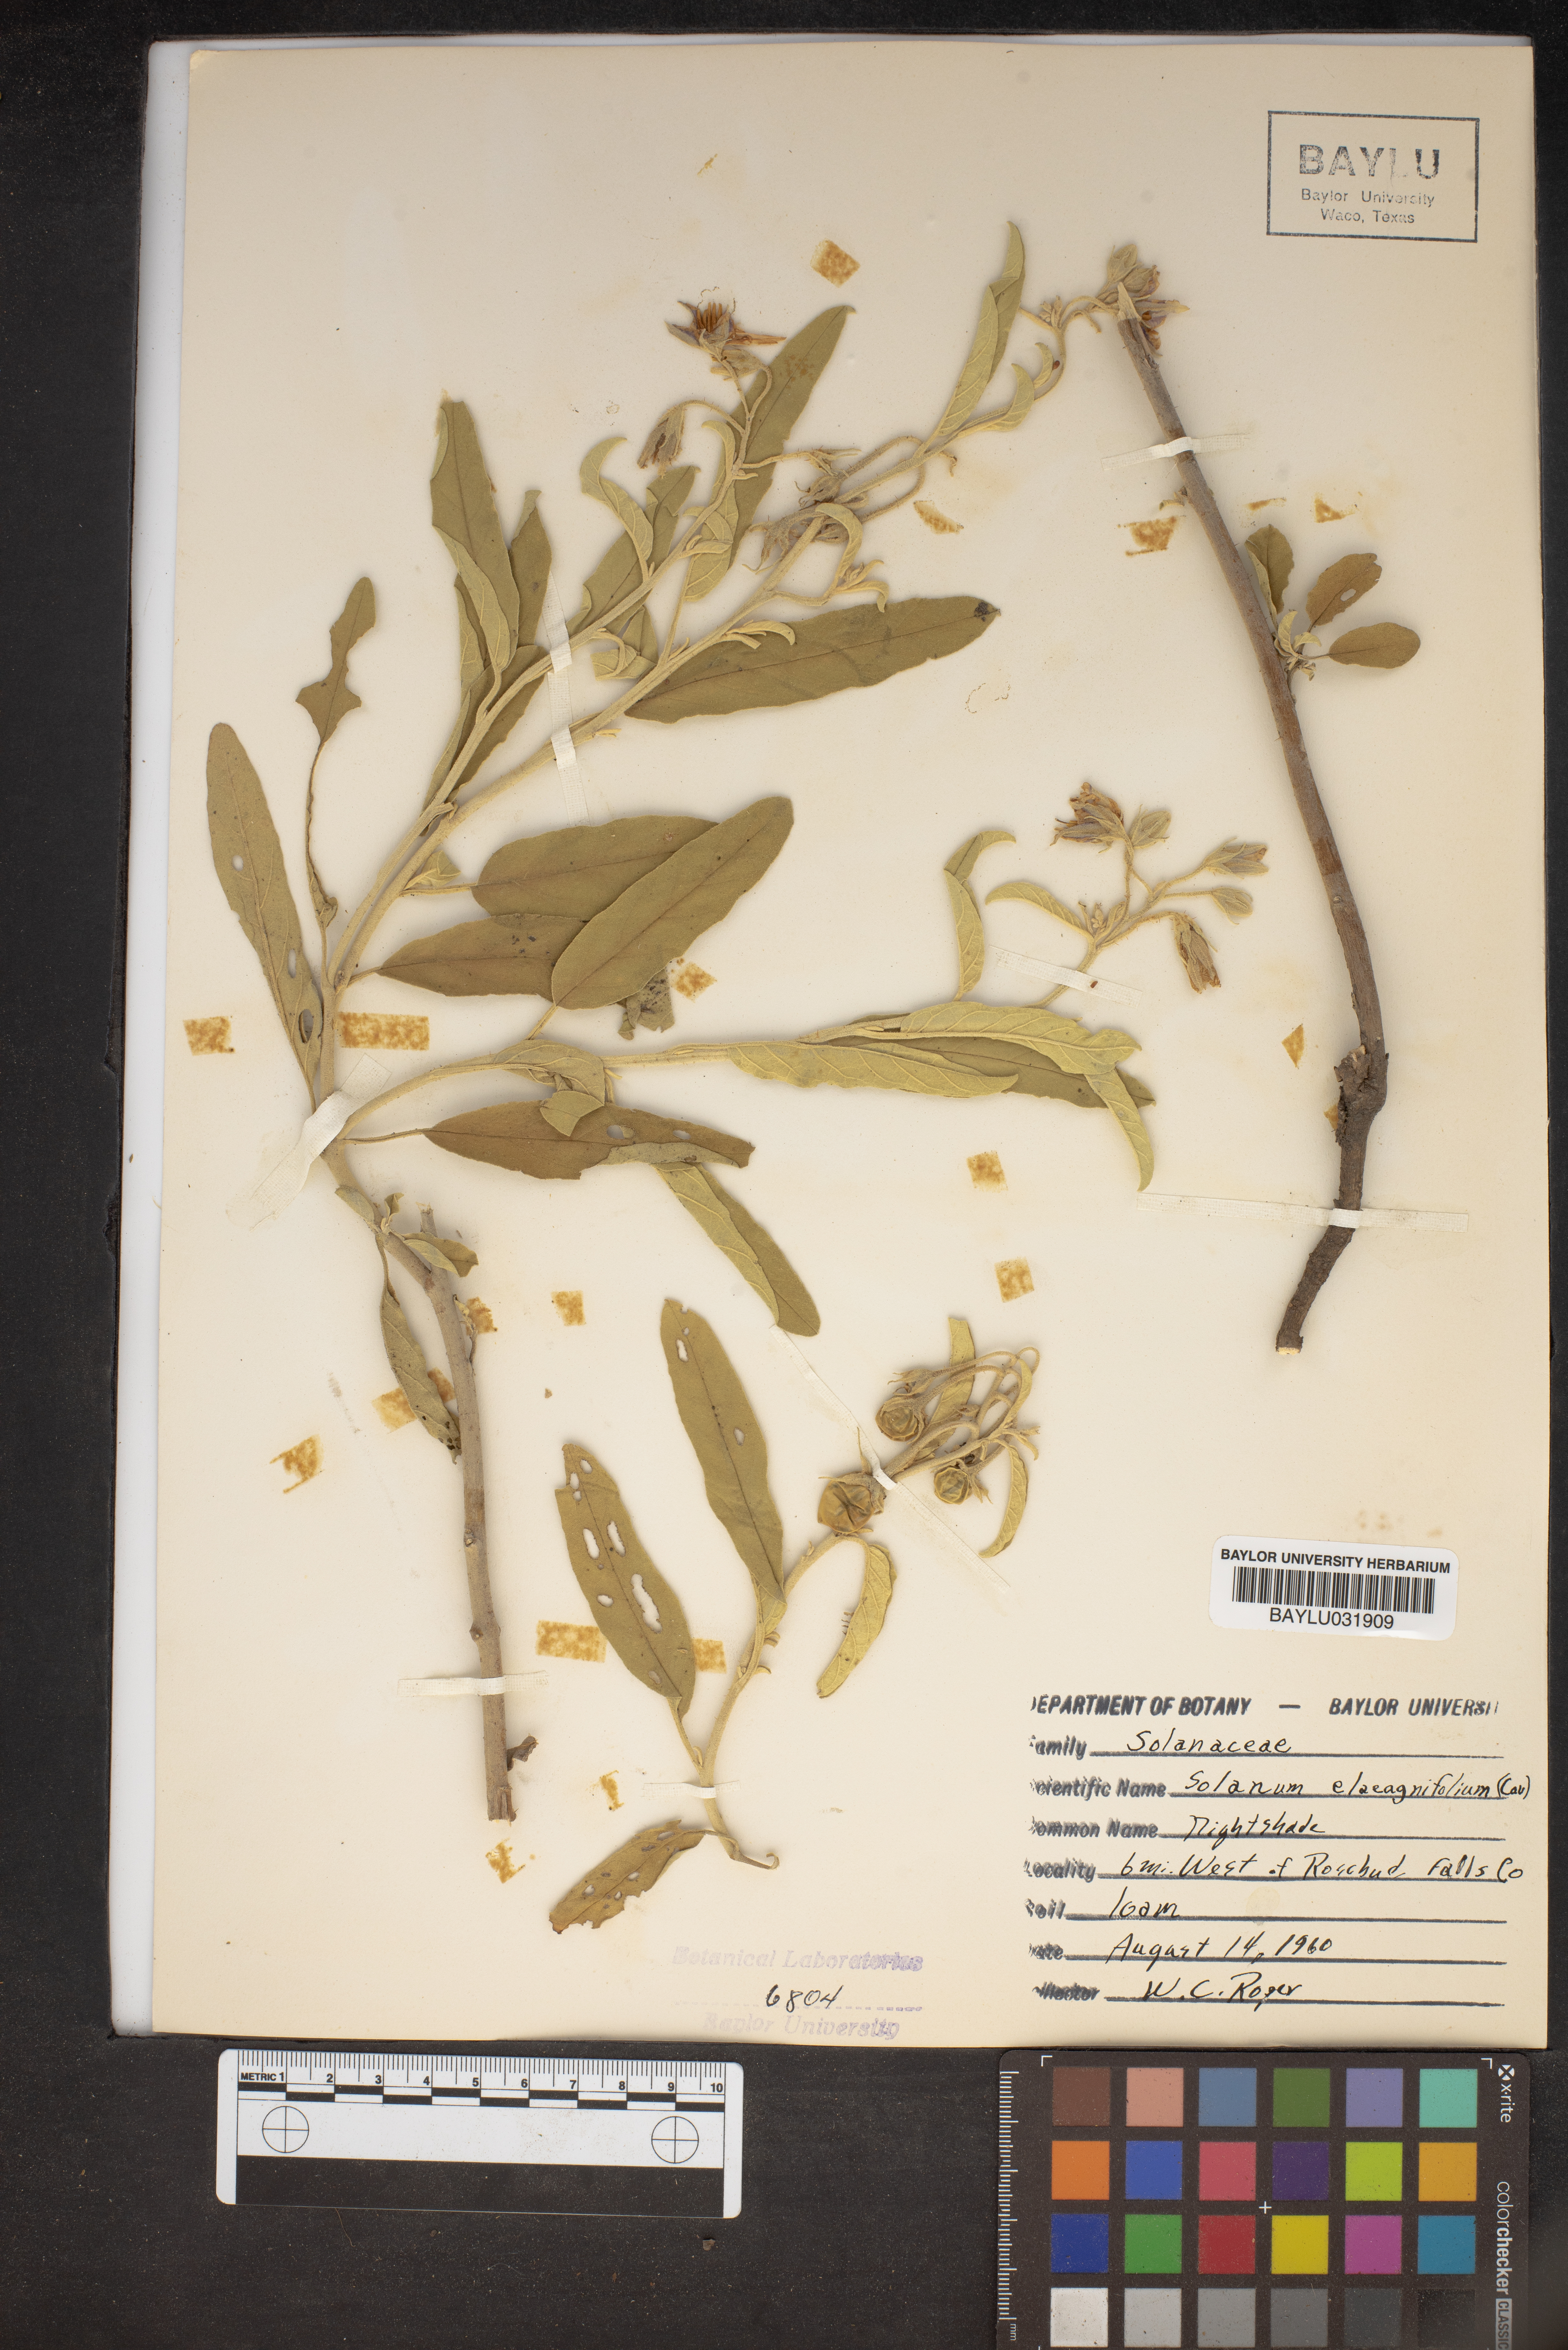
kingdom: Plantae
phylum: Tracheophyta
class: Magnoliopsida
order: Solanales
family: Solanaceae
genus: Solanum
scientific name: Solanum elaeagnifolium
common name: Silverleaf nightshade
